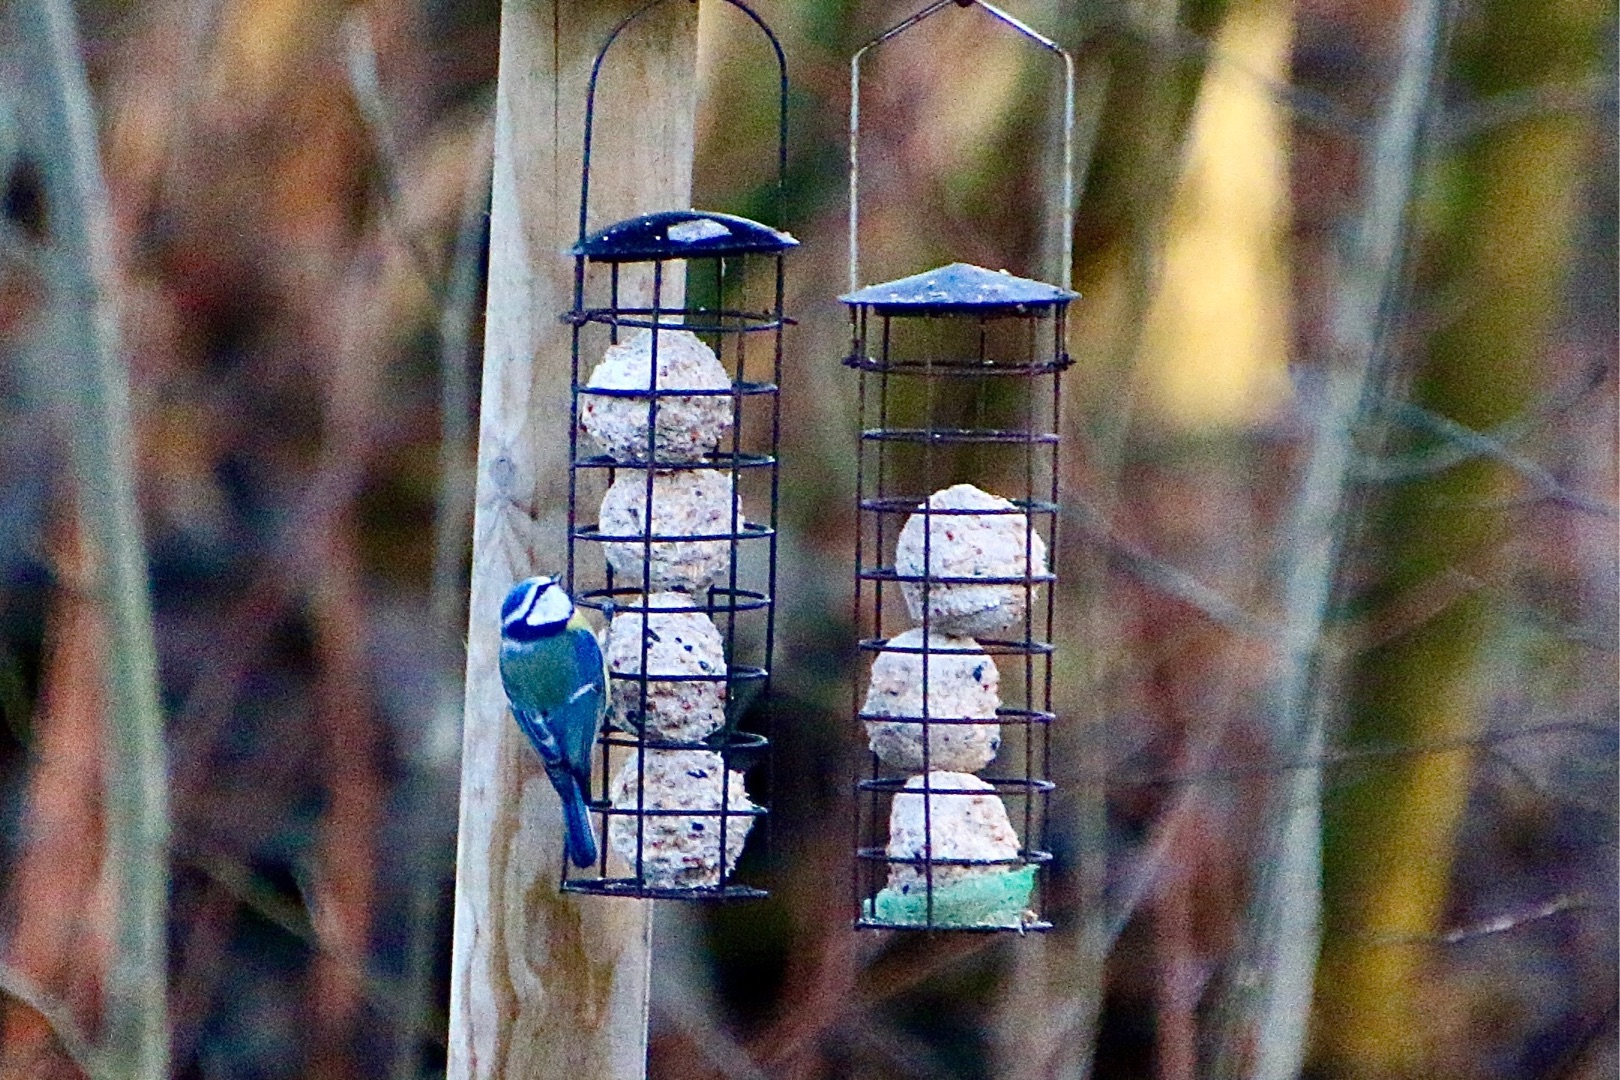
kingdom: Animalia
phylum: Chordata
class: Aves
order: Passeriformes
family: Paridae
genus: Cyanistes
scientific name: Cyanistes caeruleus
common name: Blåmejse
